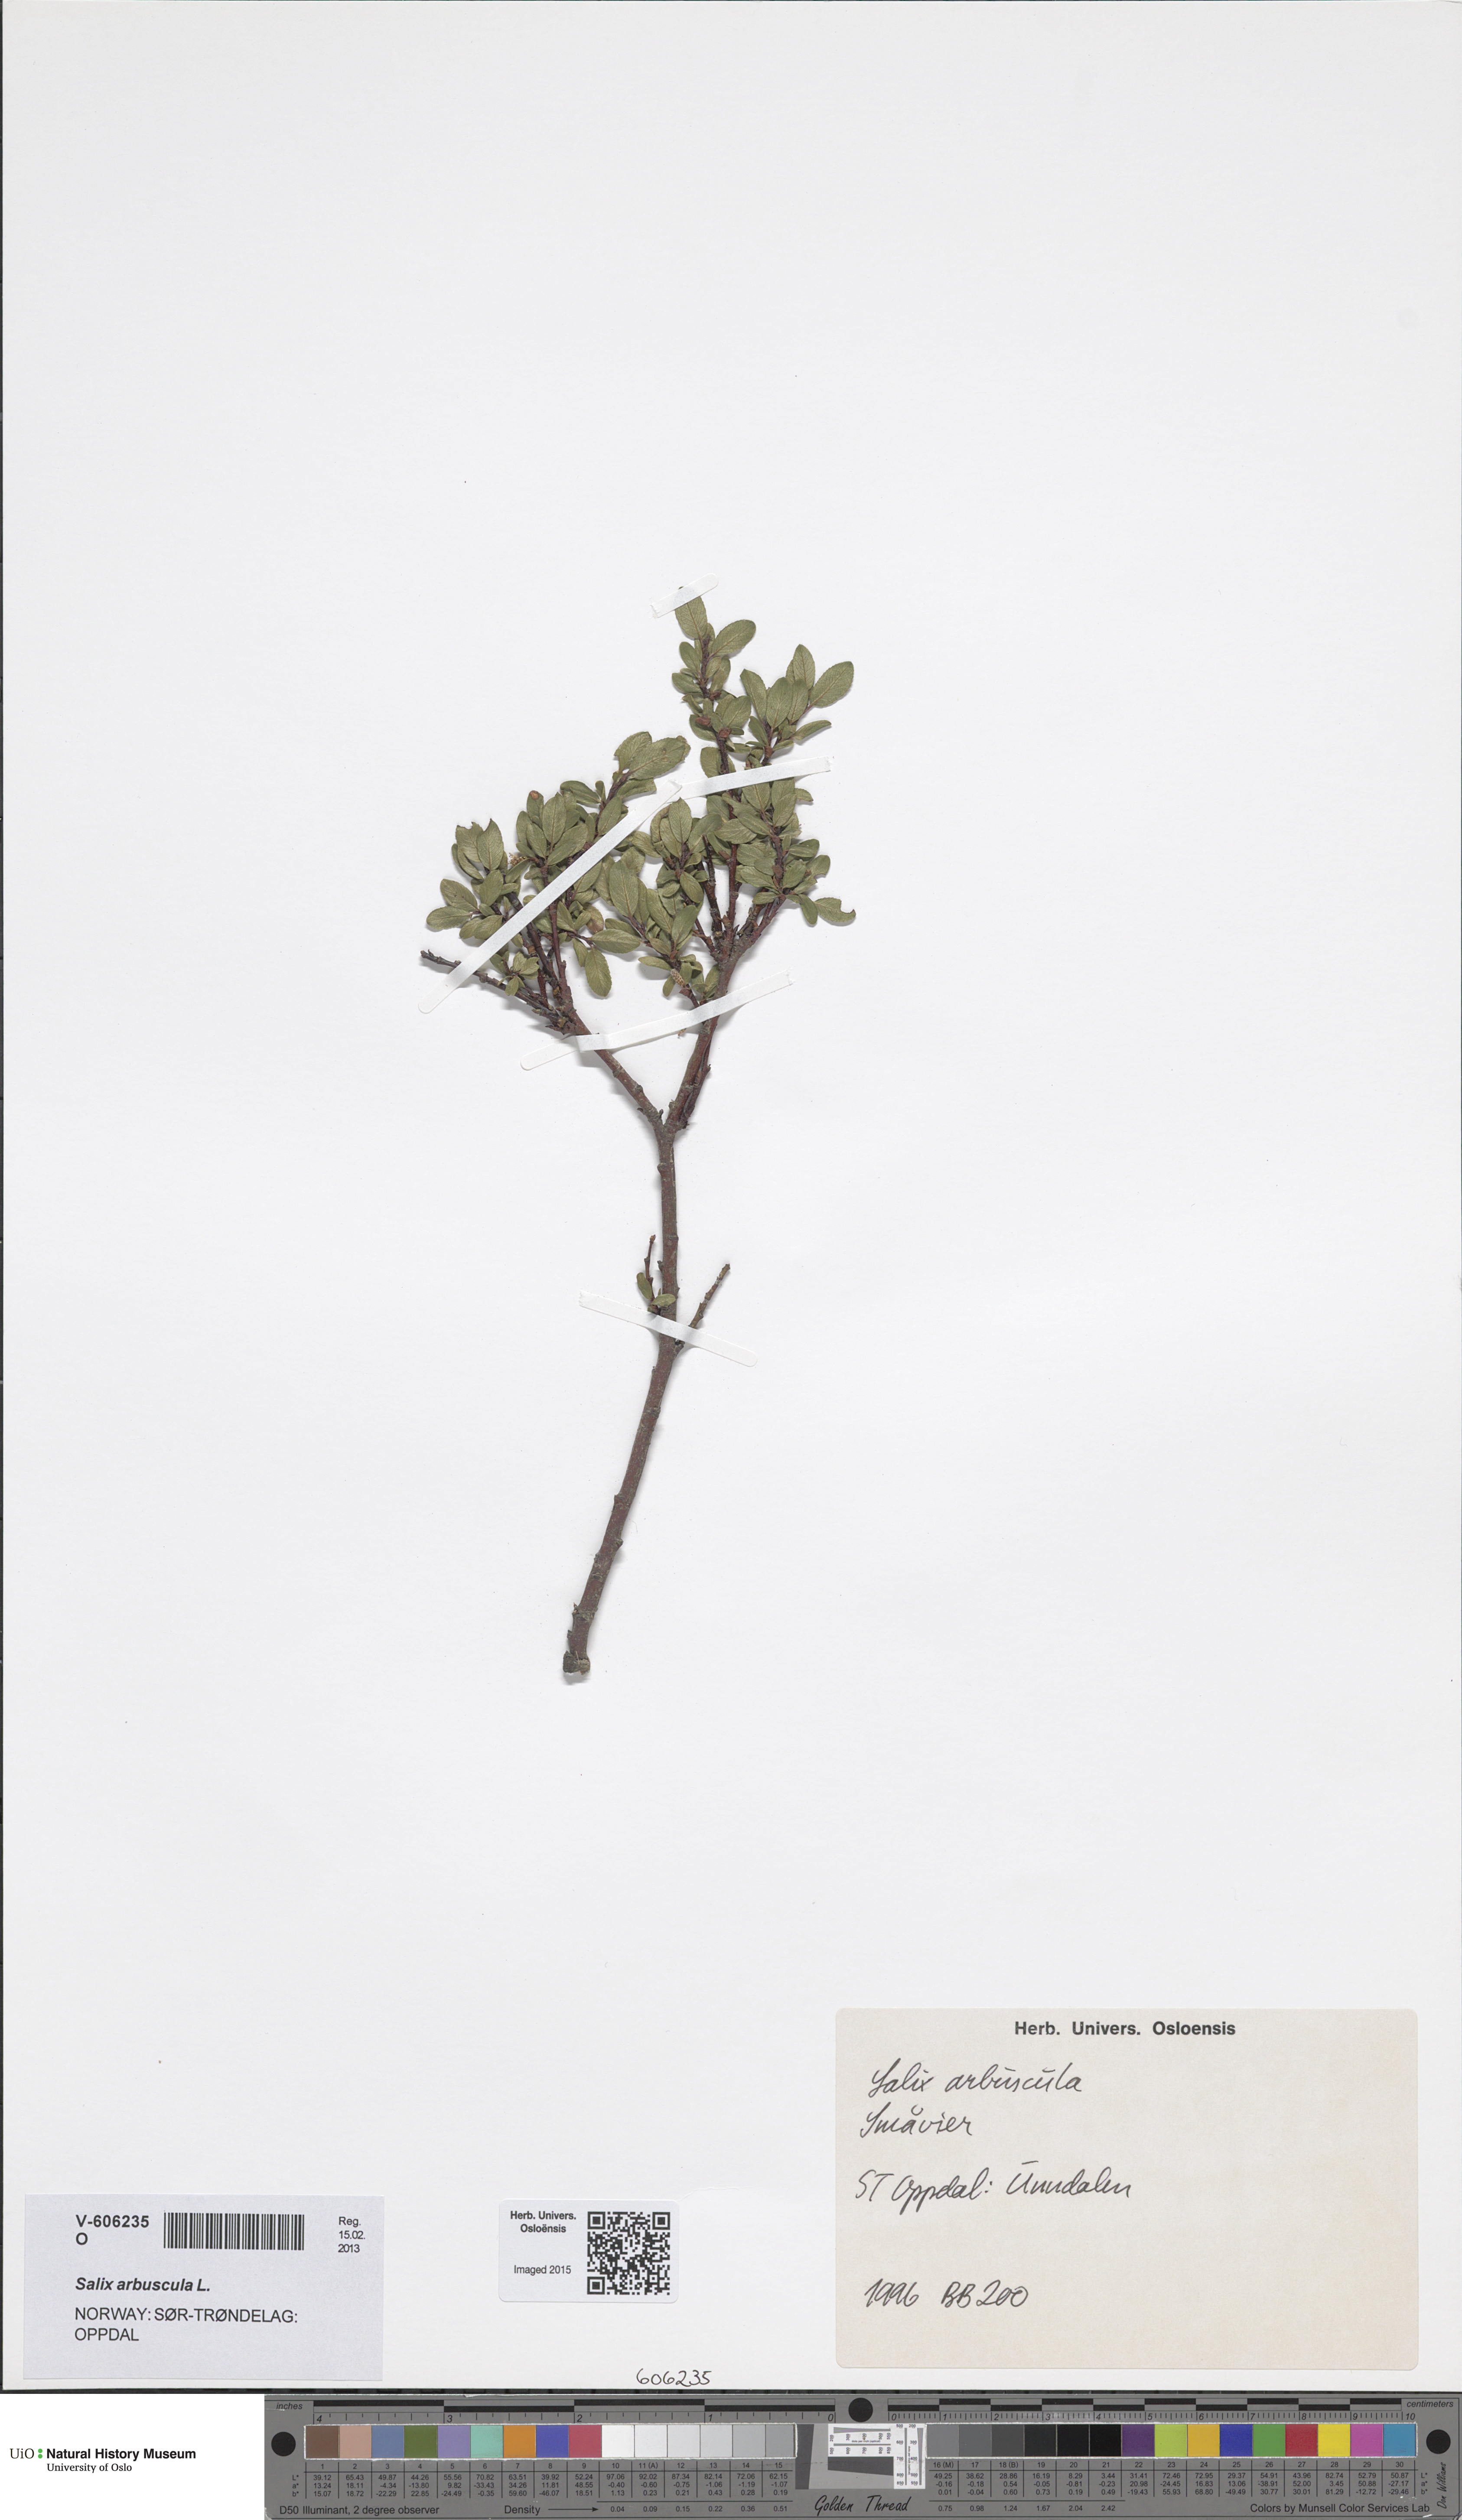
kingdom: Plantae
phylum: Tracheophyta
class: Magnoliopsida
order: Malpighiales
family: Salicaceae
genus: Salix
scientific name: Salix arbuscula
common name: Mountain willow
